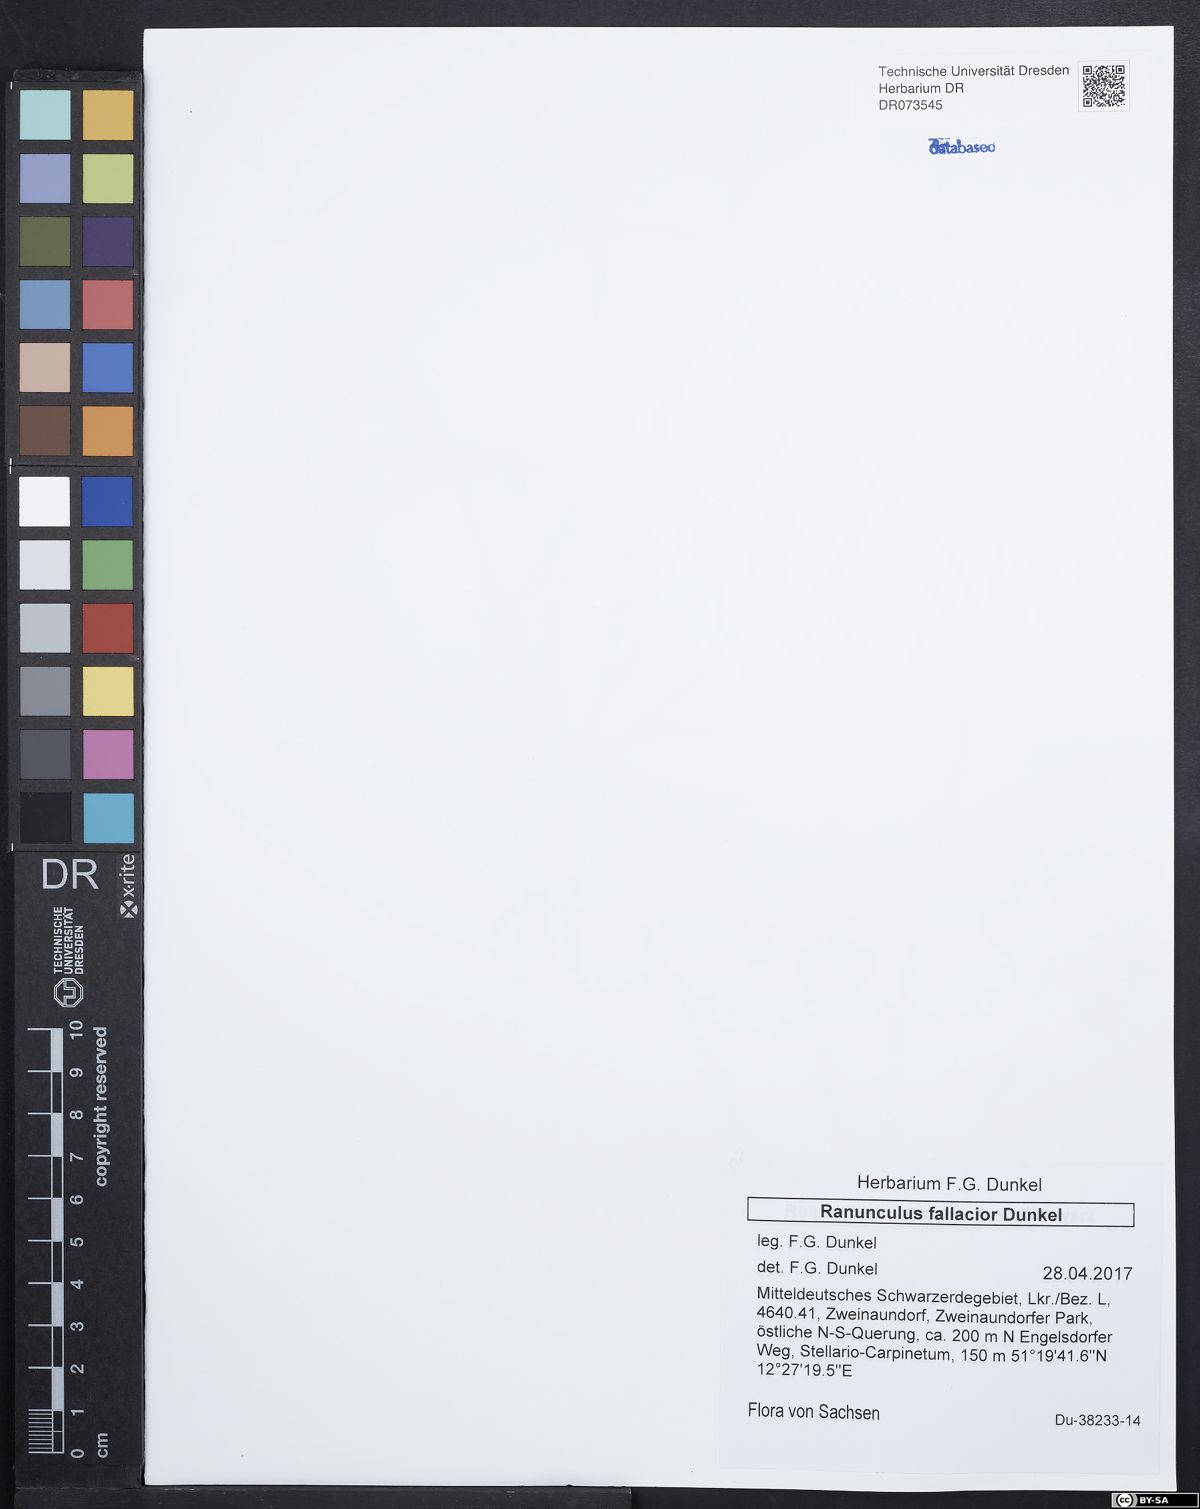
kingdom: Plantae
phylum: Tracheophyta
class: Magnoliopsida
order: Ranunculales
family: Ranunculaceae
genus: Ranunculus
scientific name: Ranunculus fallacior
